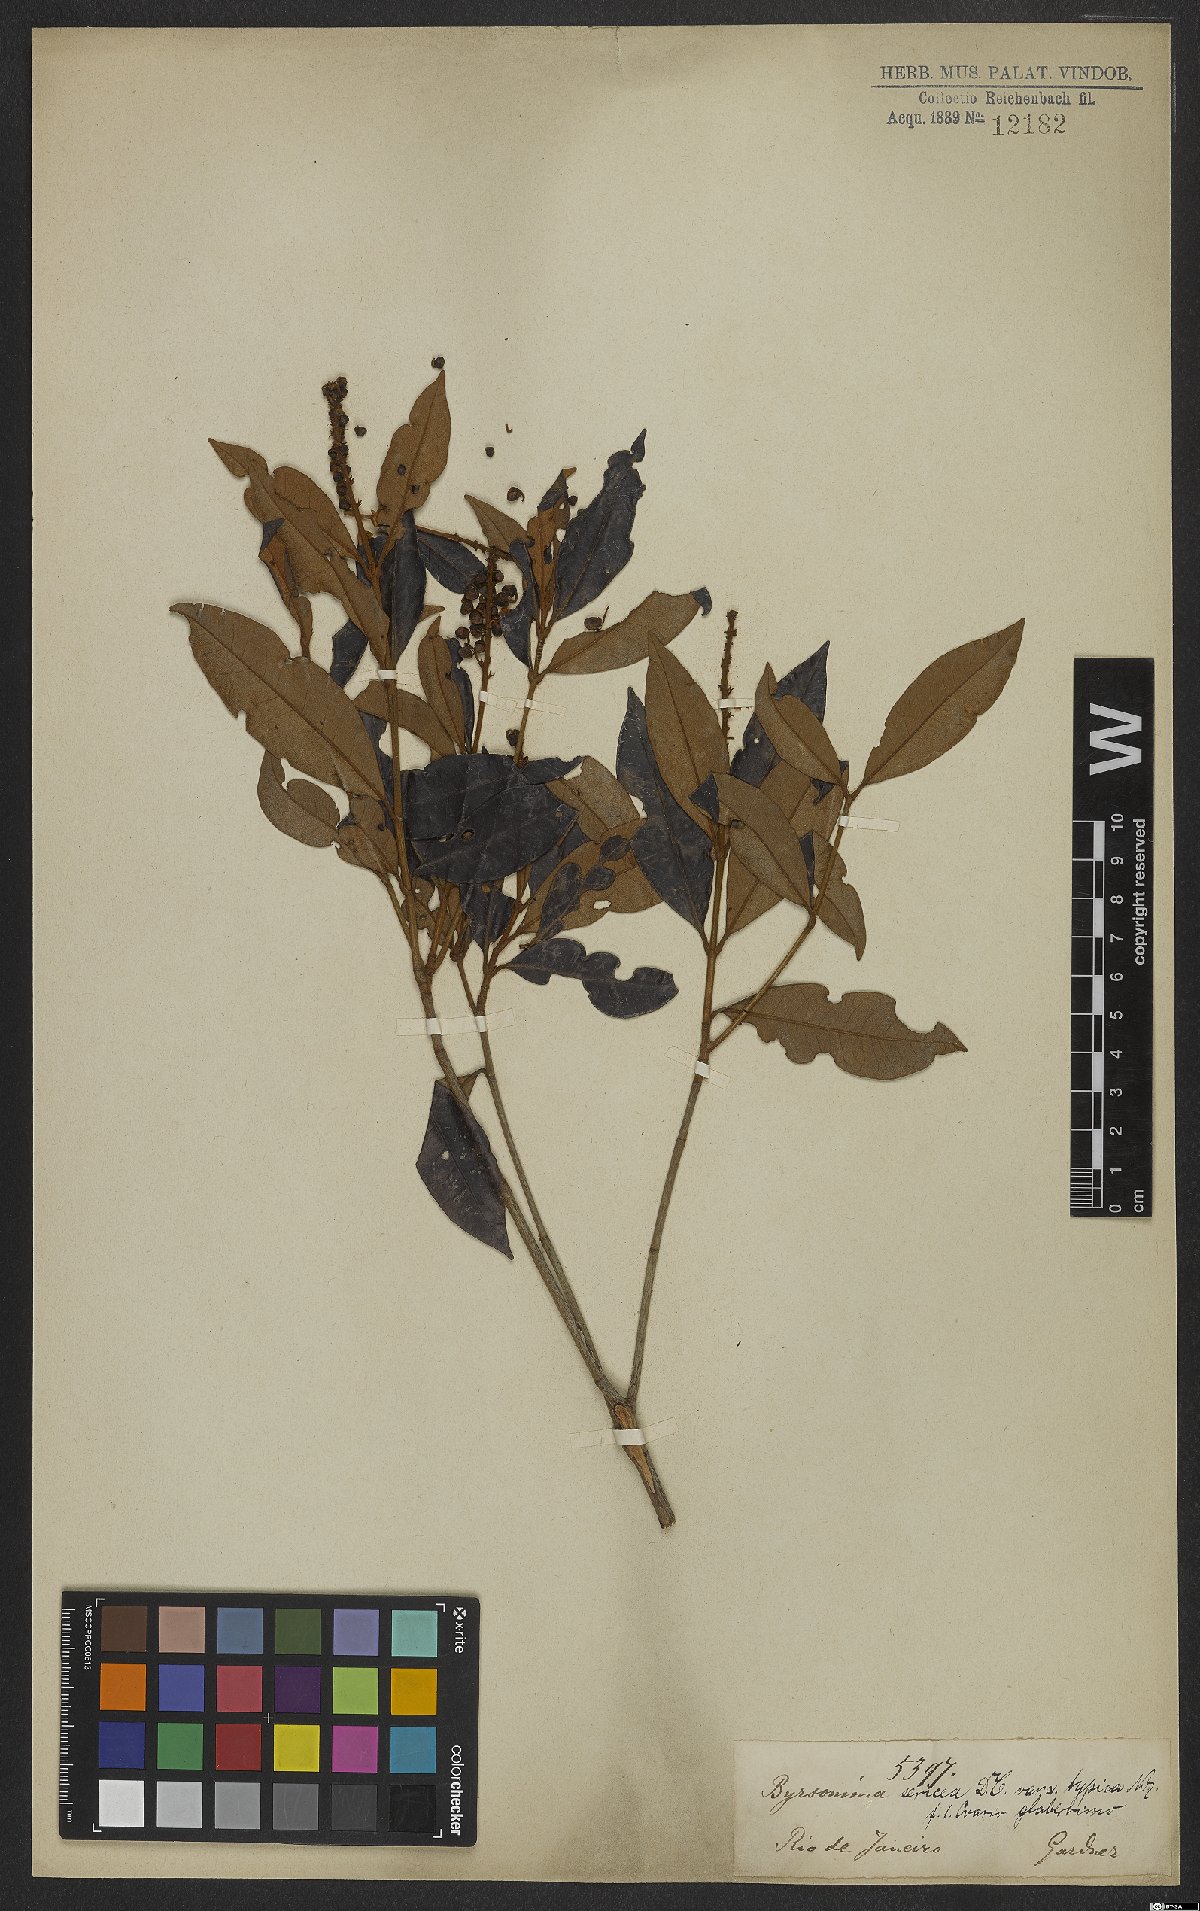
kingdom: Plantae
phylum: Tracheophyta
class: Magnoliopsida
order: Malpighiales
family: Malpighiaceae
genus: Byrsonima
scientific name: Byrsonima sericea
